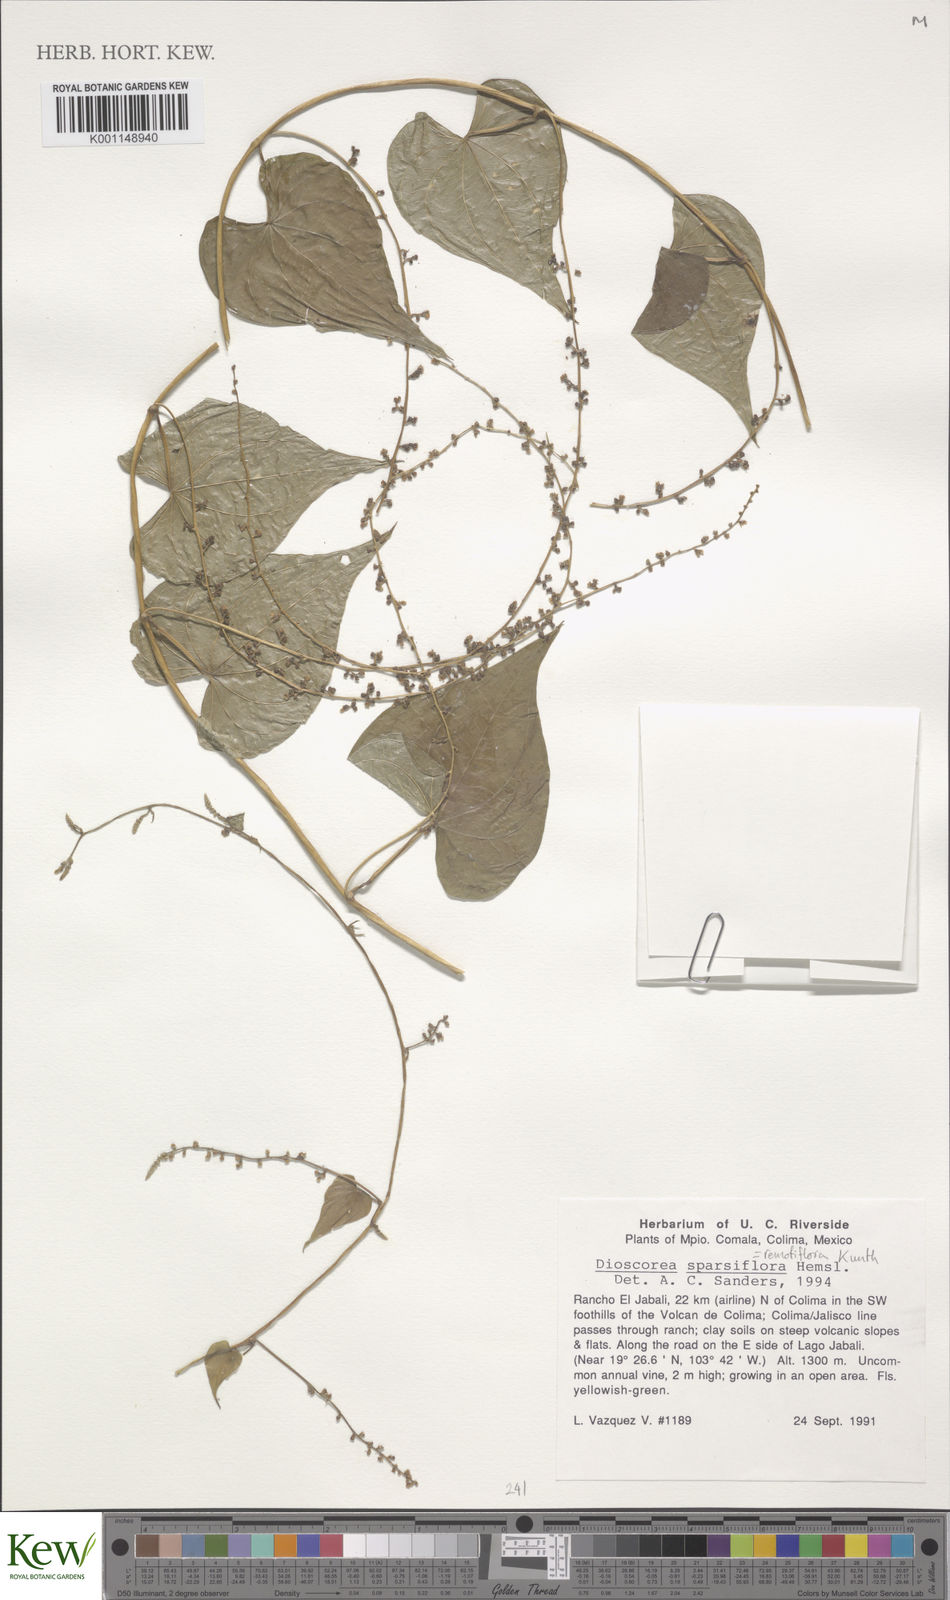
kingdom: Plantae
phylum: Tracheophyta
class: Liliopsida
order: Dioscoreales
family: Dioscoreaceae
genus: Dioscorea
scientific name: Dioscorea remotiflora
